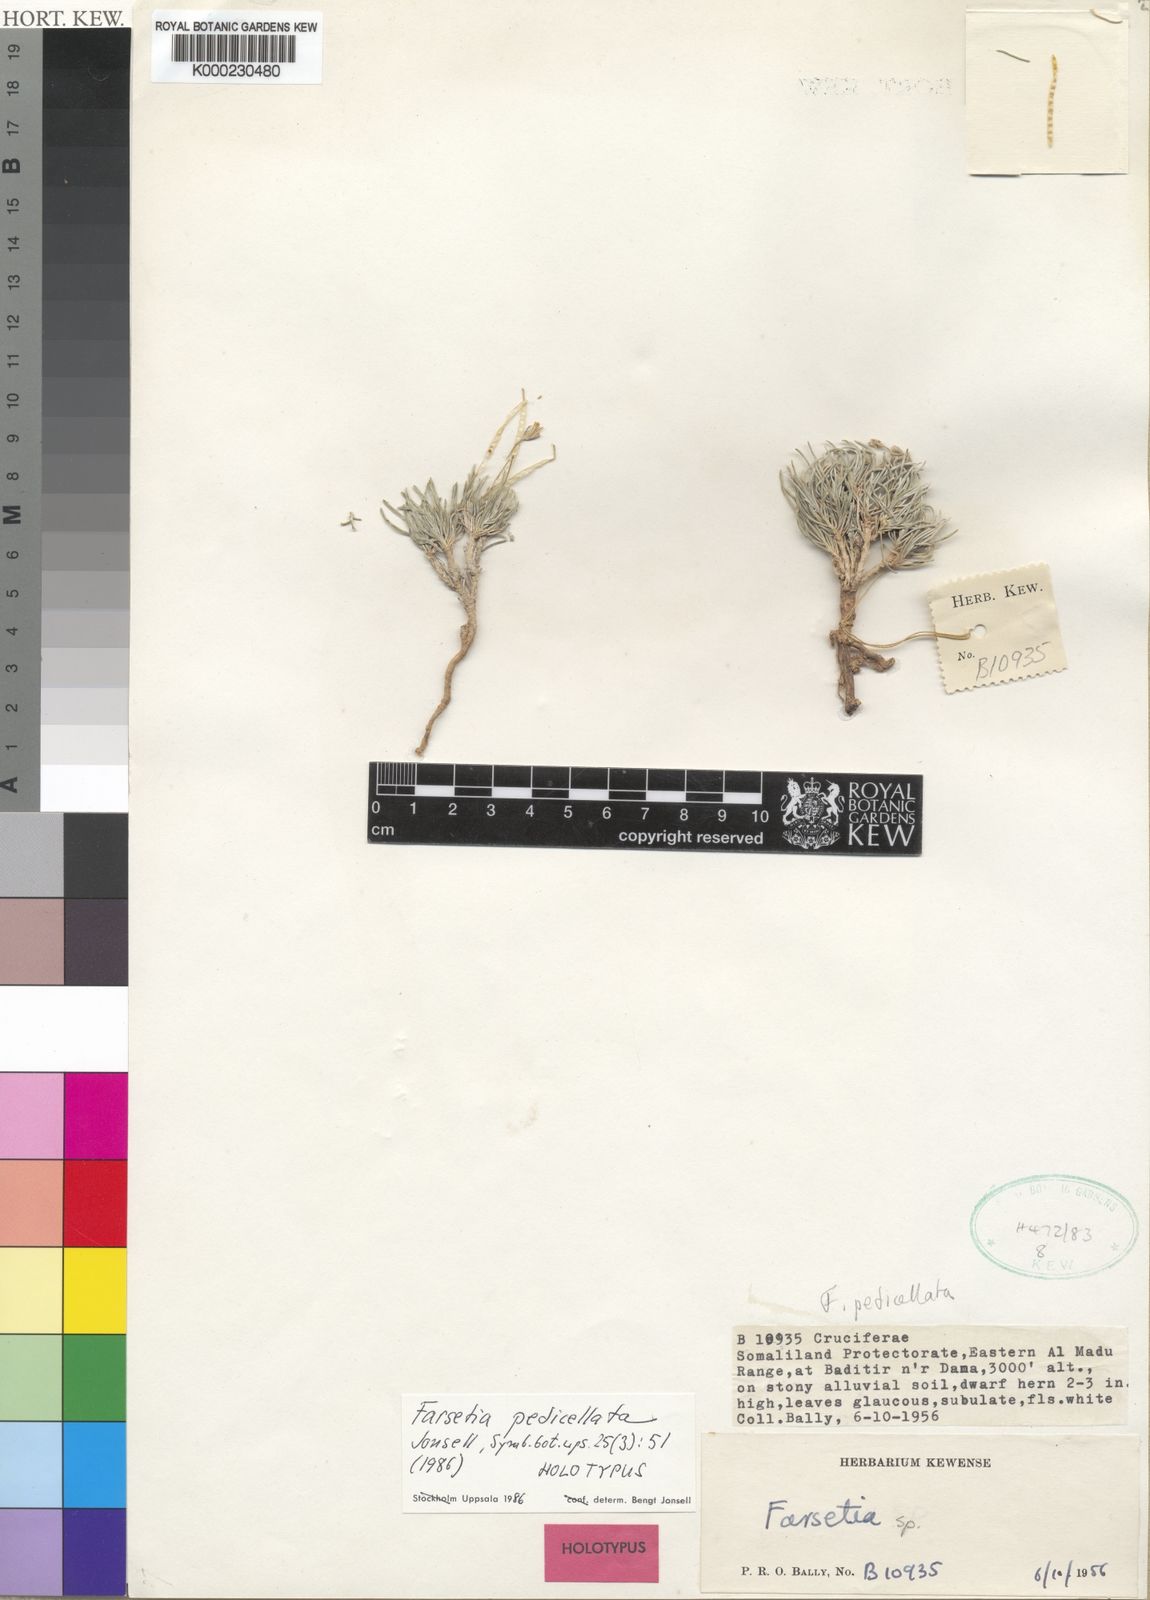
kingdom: Plantae
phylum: Tracheophyta
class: Magnoliopsida
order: Brassicales
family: Brassicaceae
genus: Farsetia
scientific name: Farsetia pedicellata
